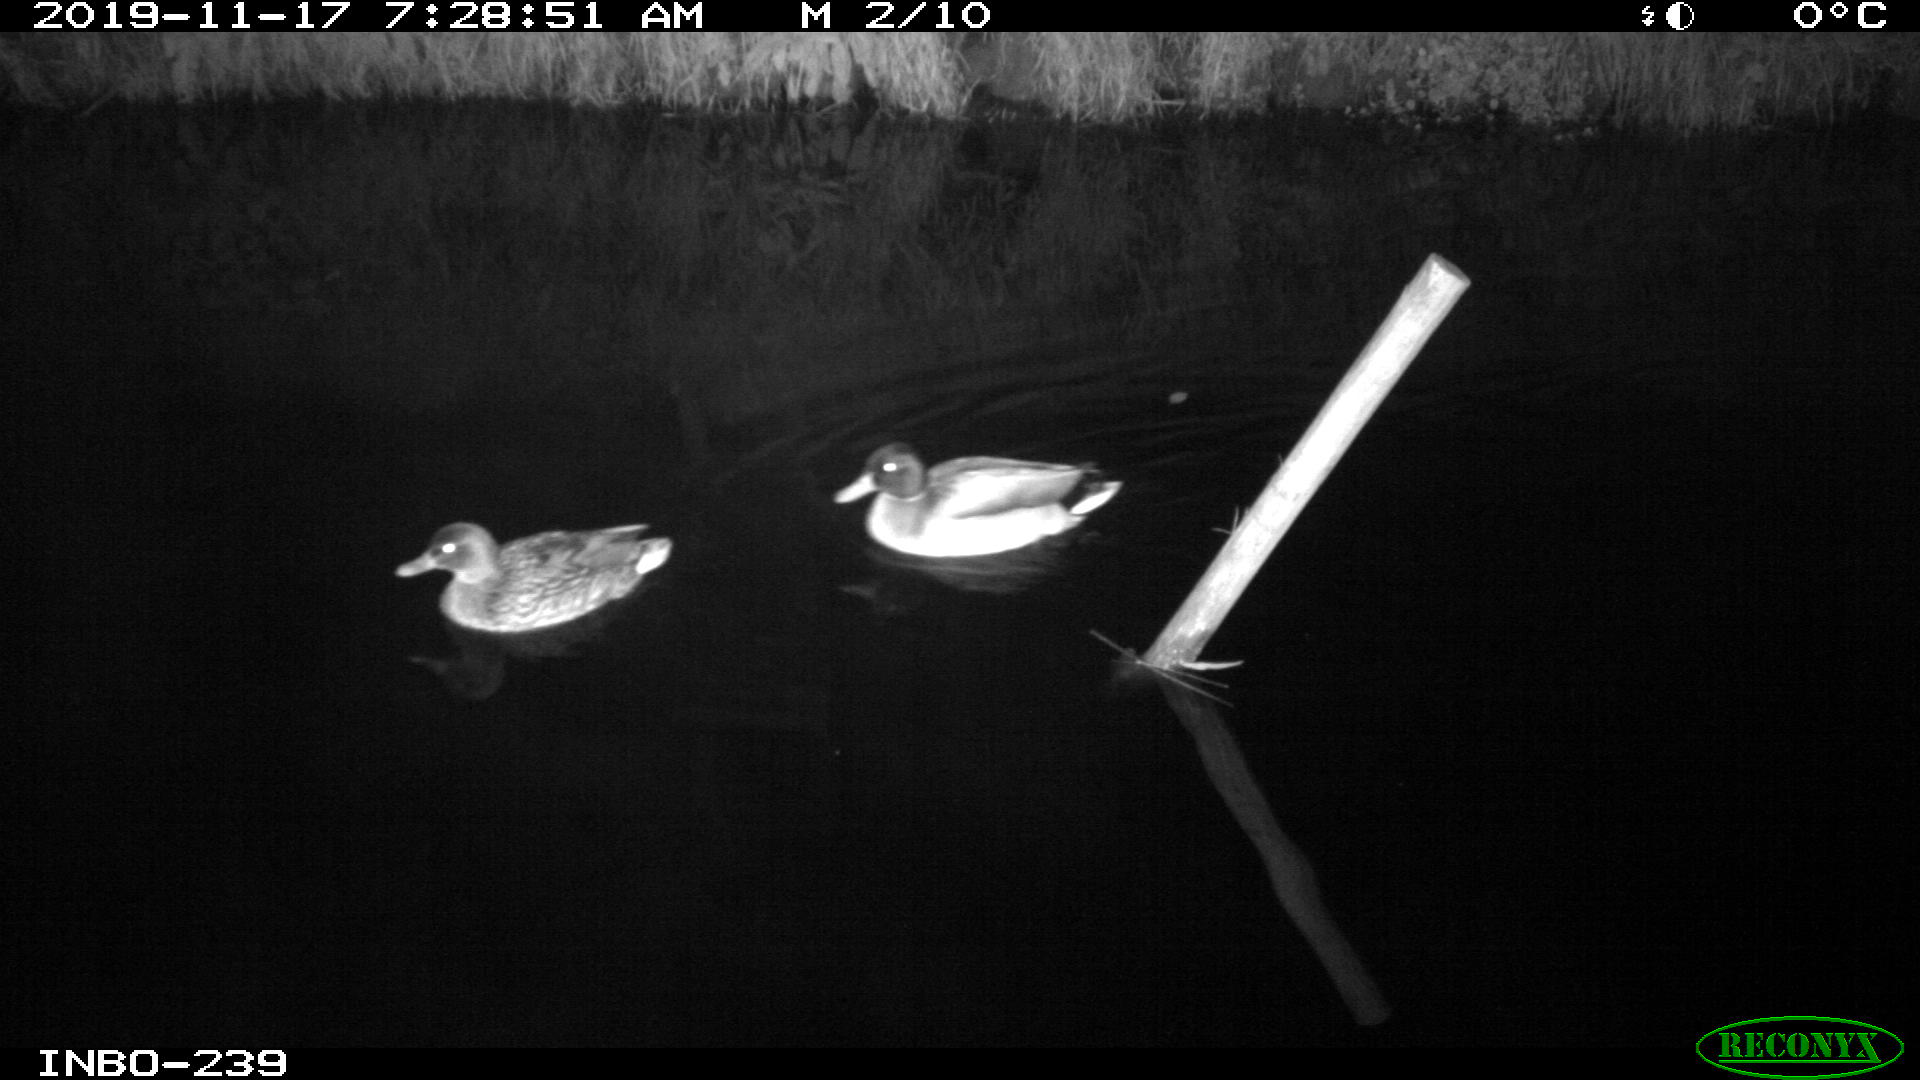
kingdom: Animalia
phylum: Chordata
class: Aves
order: Anseriformes
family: Anatidae
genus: Anas
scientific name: Anas platyrhynchos
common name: Mallard
